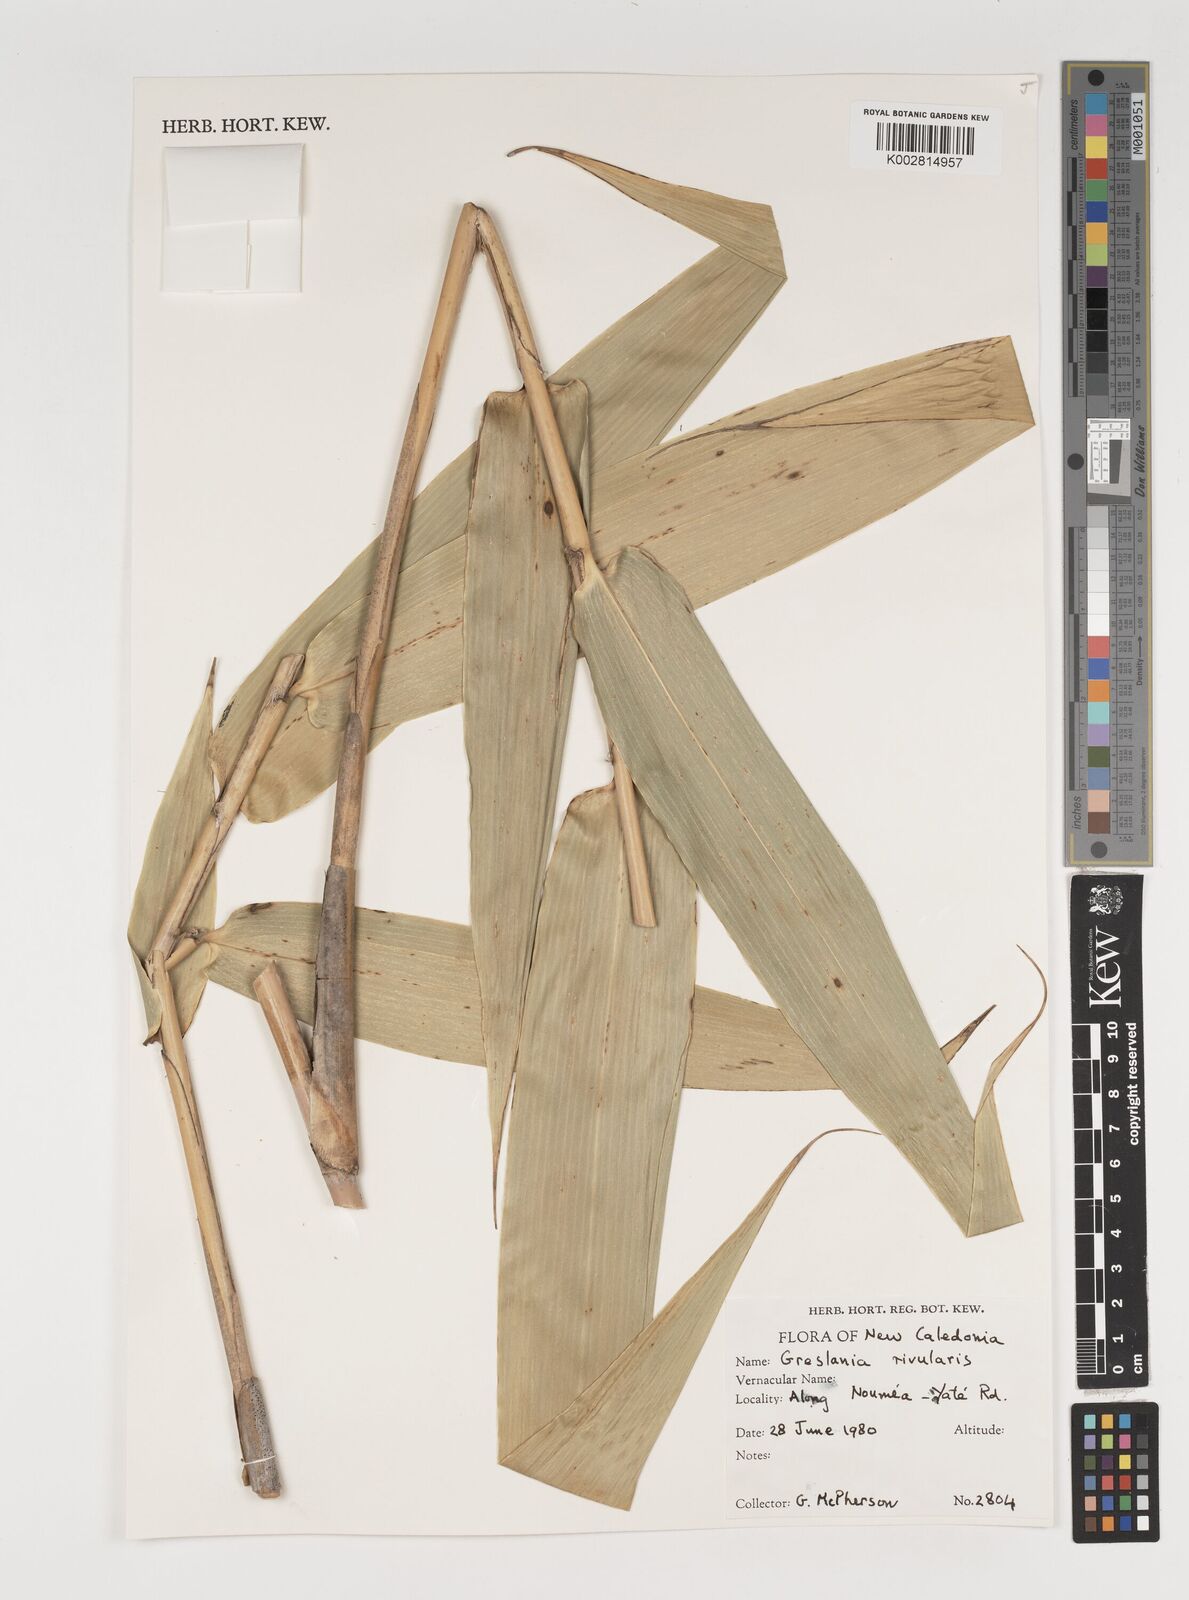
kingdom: Plantae
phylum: Tracheophyta
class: Liliopsida
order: Poales
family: Poaceae
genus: Greslania
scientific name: Greslania rivularis
